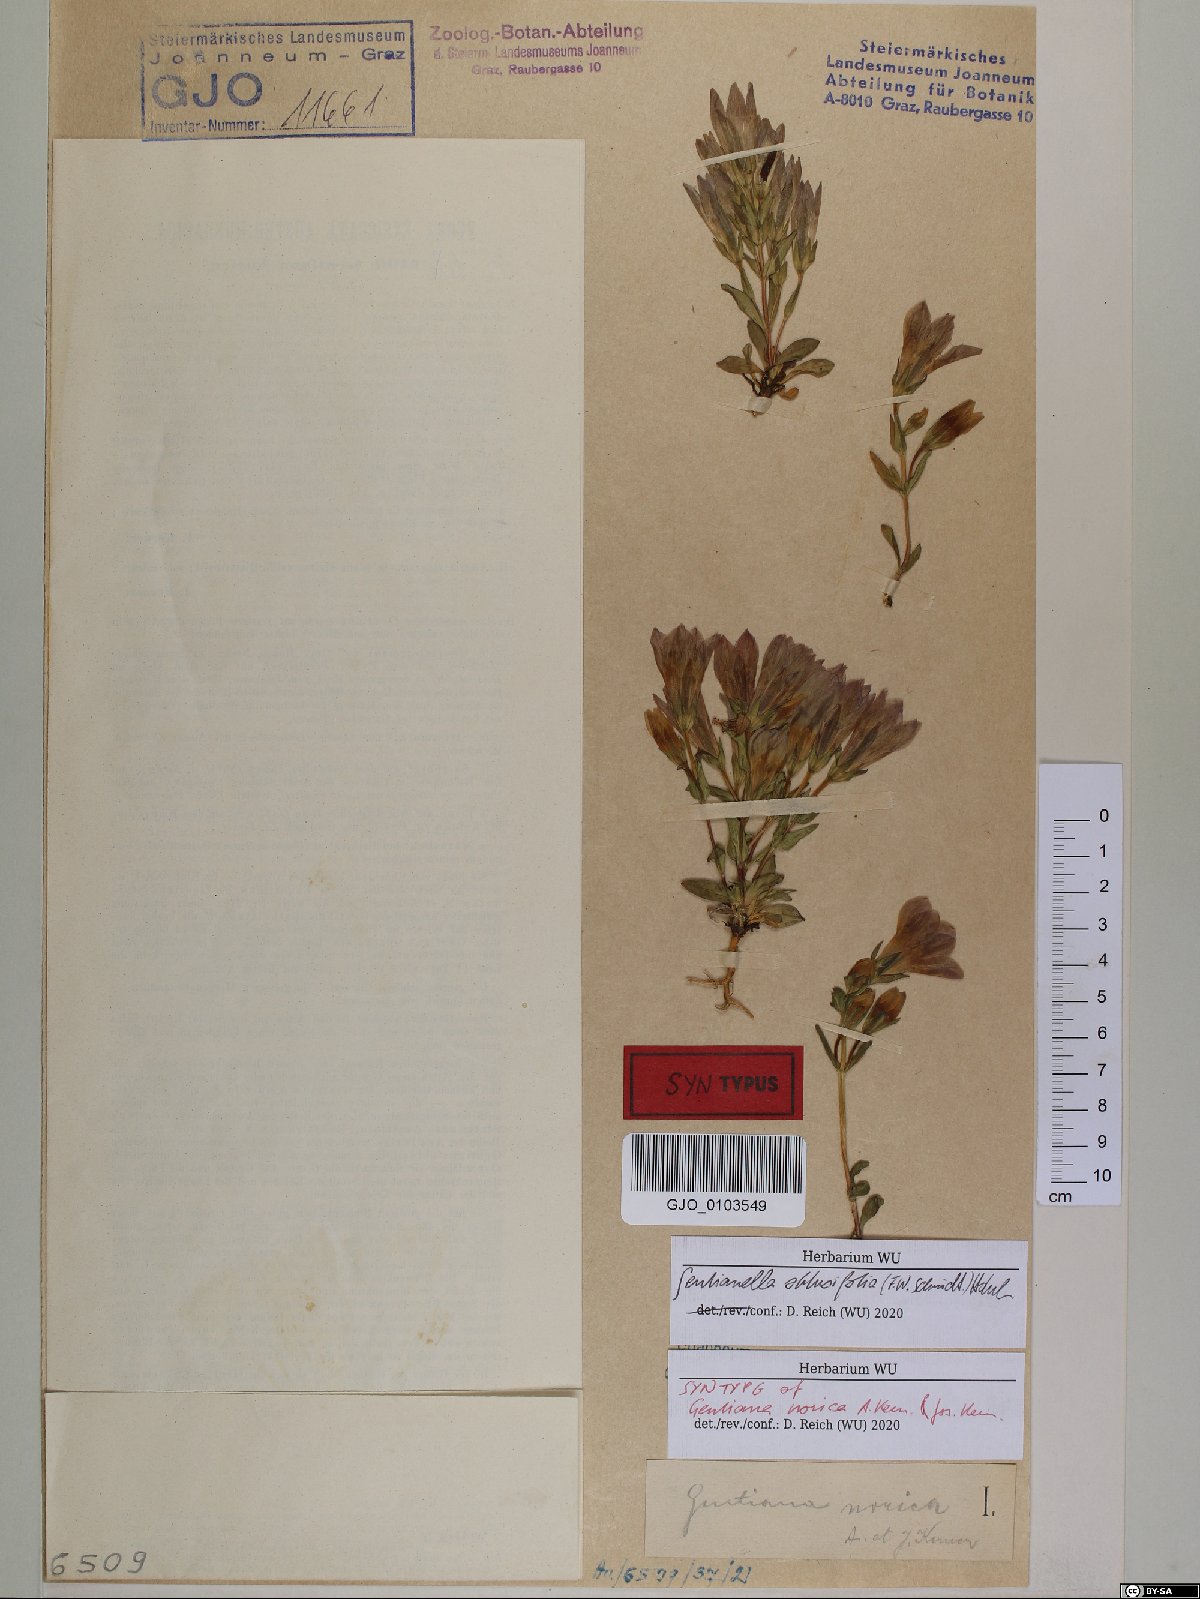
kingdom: Plantae
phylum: Tracheophyta
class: Magnoliopsida
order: Gentianales
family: Gentianaceae
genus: Gentianella
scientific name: Gentianella obtusifolia
